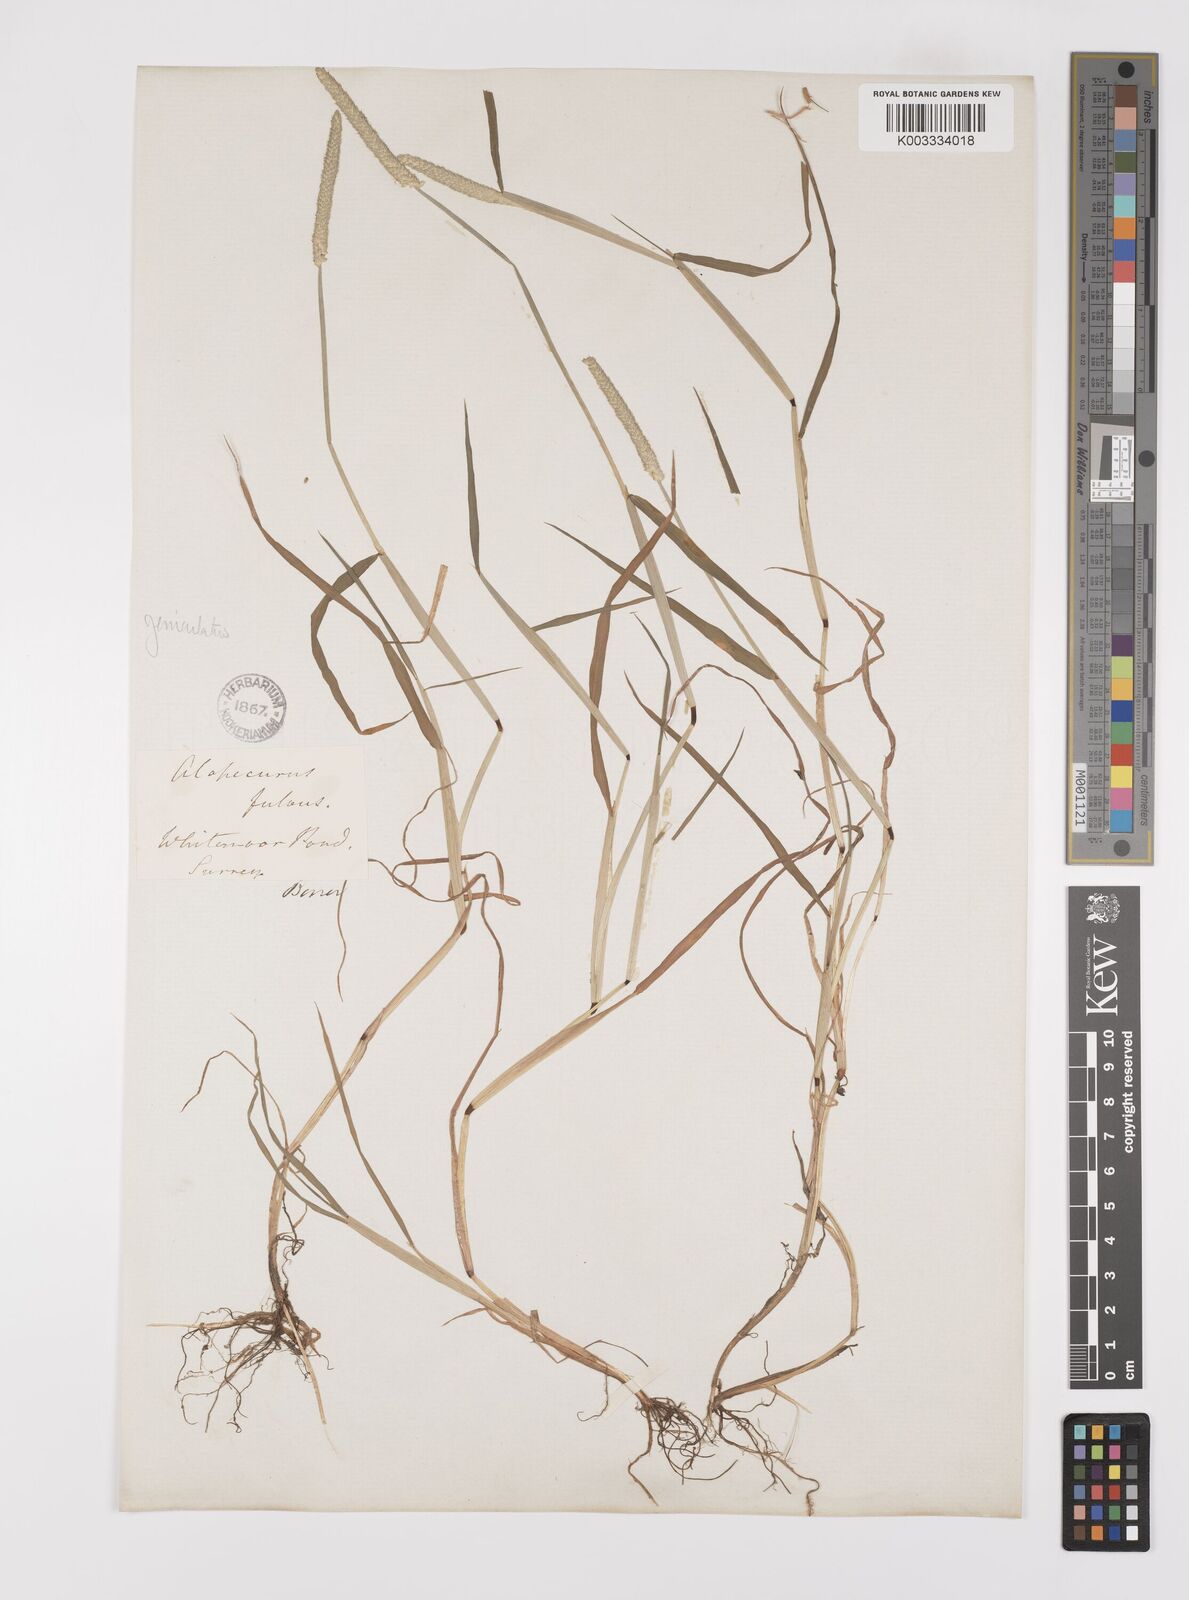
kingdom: Plantae
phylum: Tracheophyta
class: Liliopsida
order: Poales
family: Poaceae
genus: Alopecurus
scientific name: Alopecurus geniculatus
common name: Water foxtail
